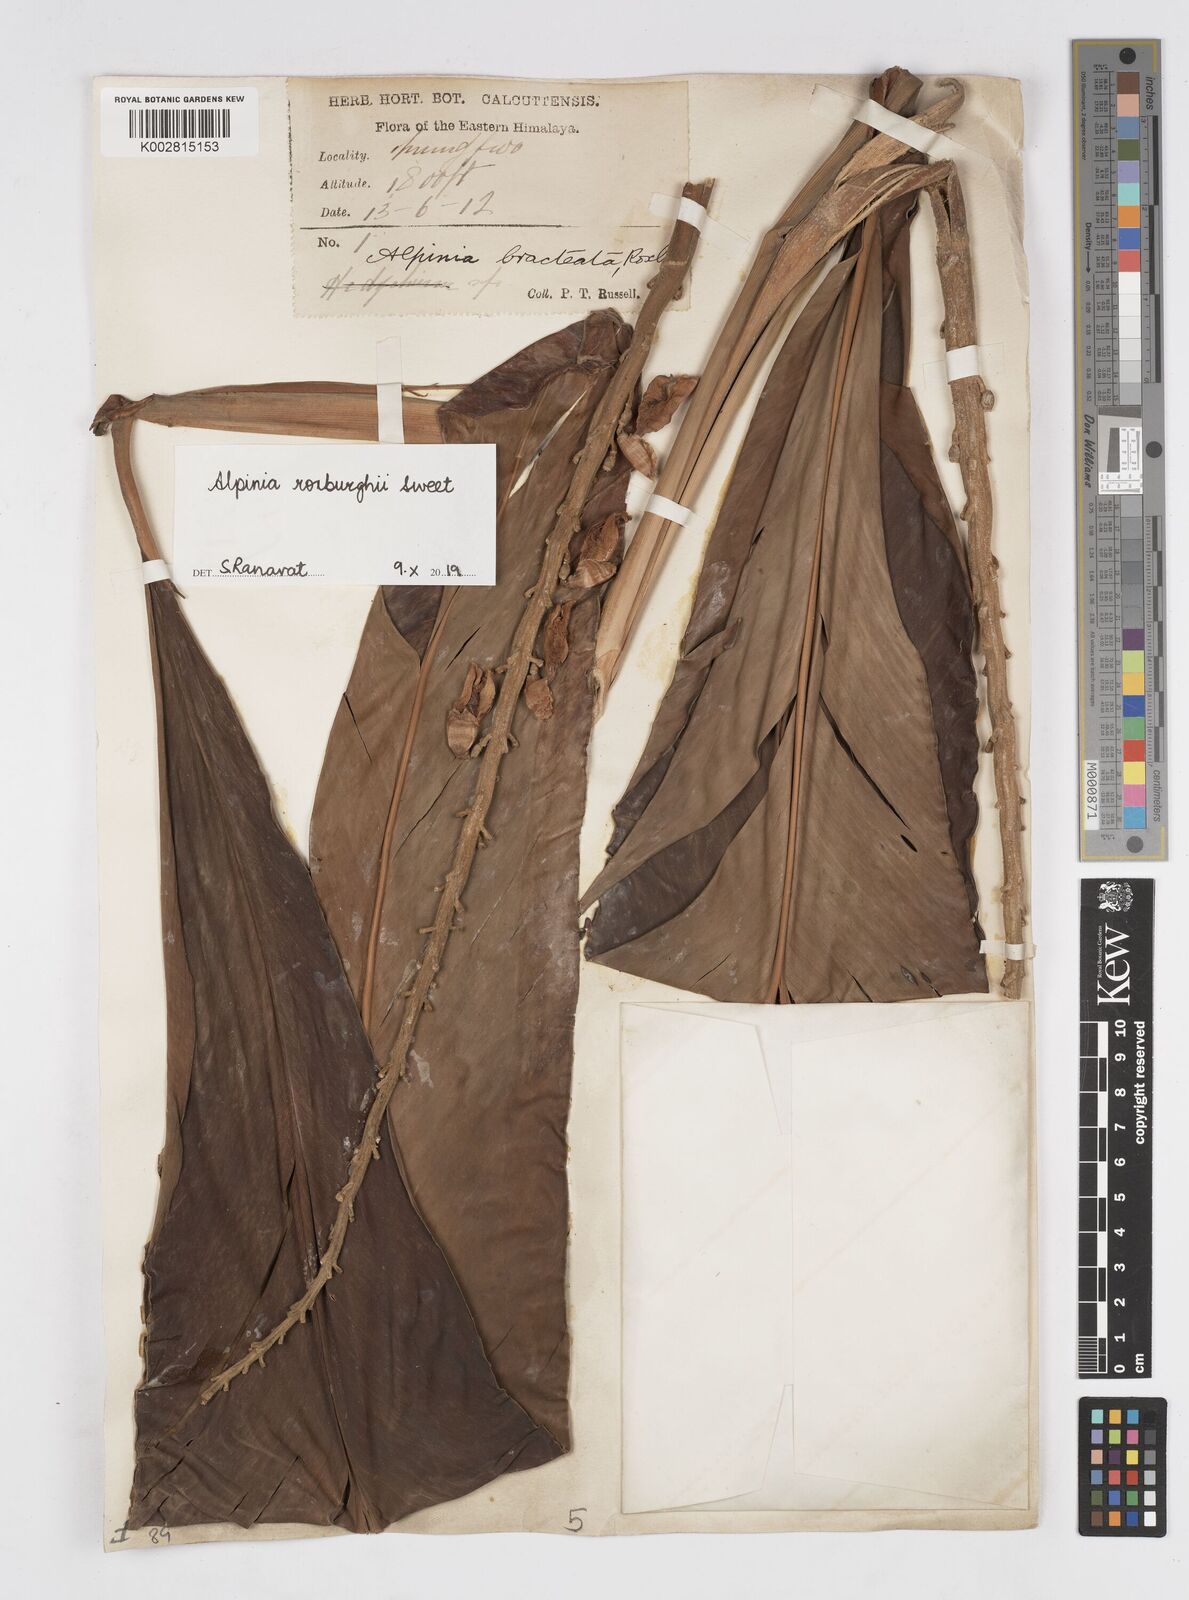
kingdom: Plantae
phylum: Tracheophyta
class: Liliopsida
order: Zingiberales
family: Zingiberaceae
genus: Alpinia
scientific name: Alpinia roxburghii
